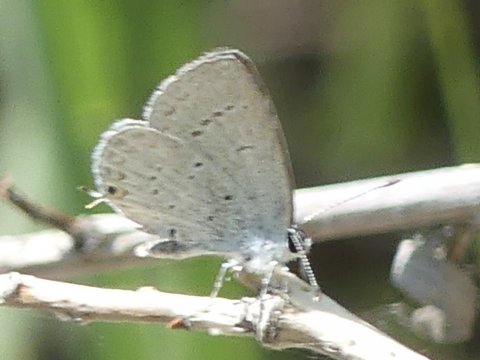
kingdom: Animalia
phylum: Arthropoda
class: Insecta
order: Lepidoptera
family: Lycaenidae
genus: Elkalyce
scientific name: Elkalyce amyntula
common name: Western Tailed-Blue
